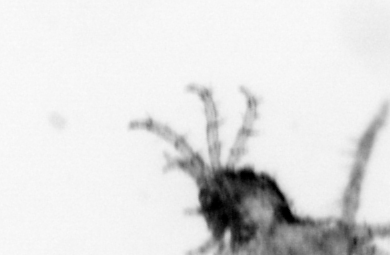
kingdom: Animalia
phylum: Arthropoda
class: Arachnida
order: Trombidiformes
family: Halacaridae
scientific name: Halacaridae
